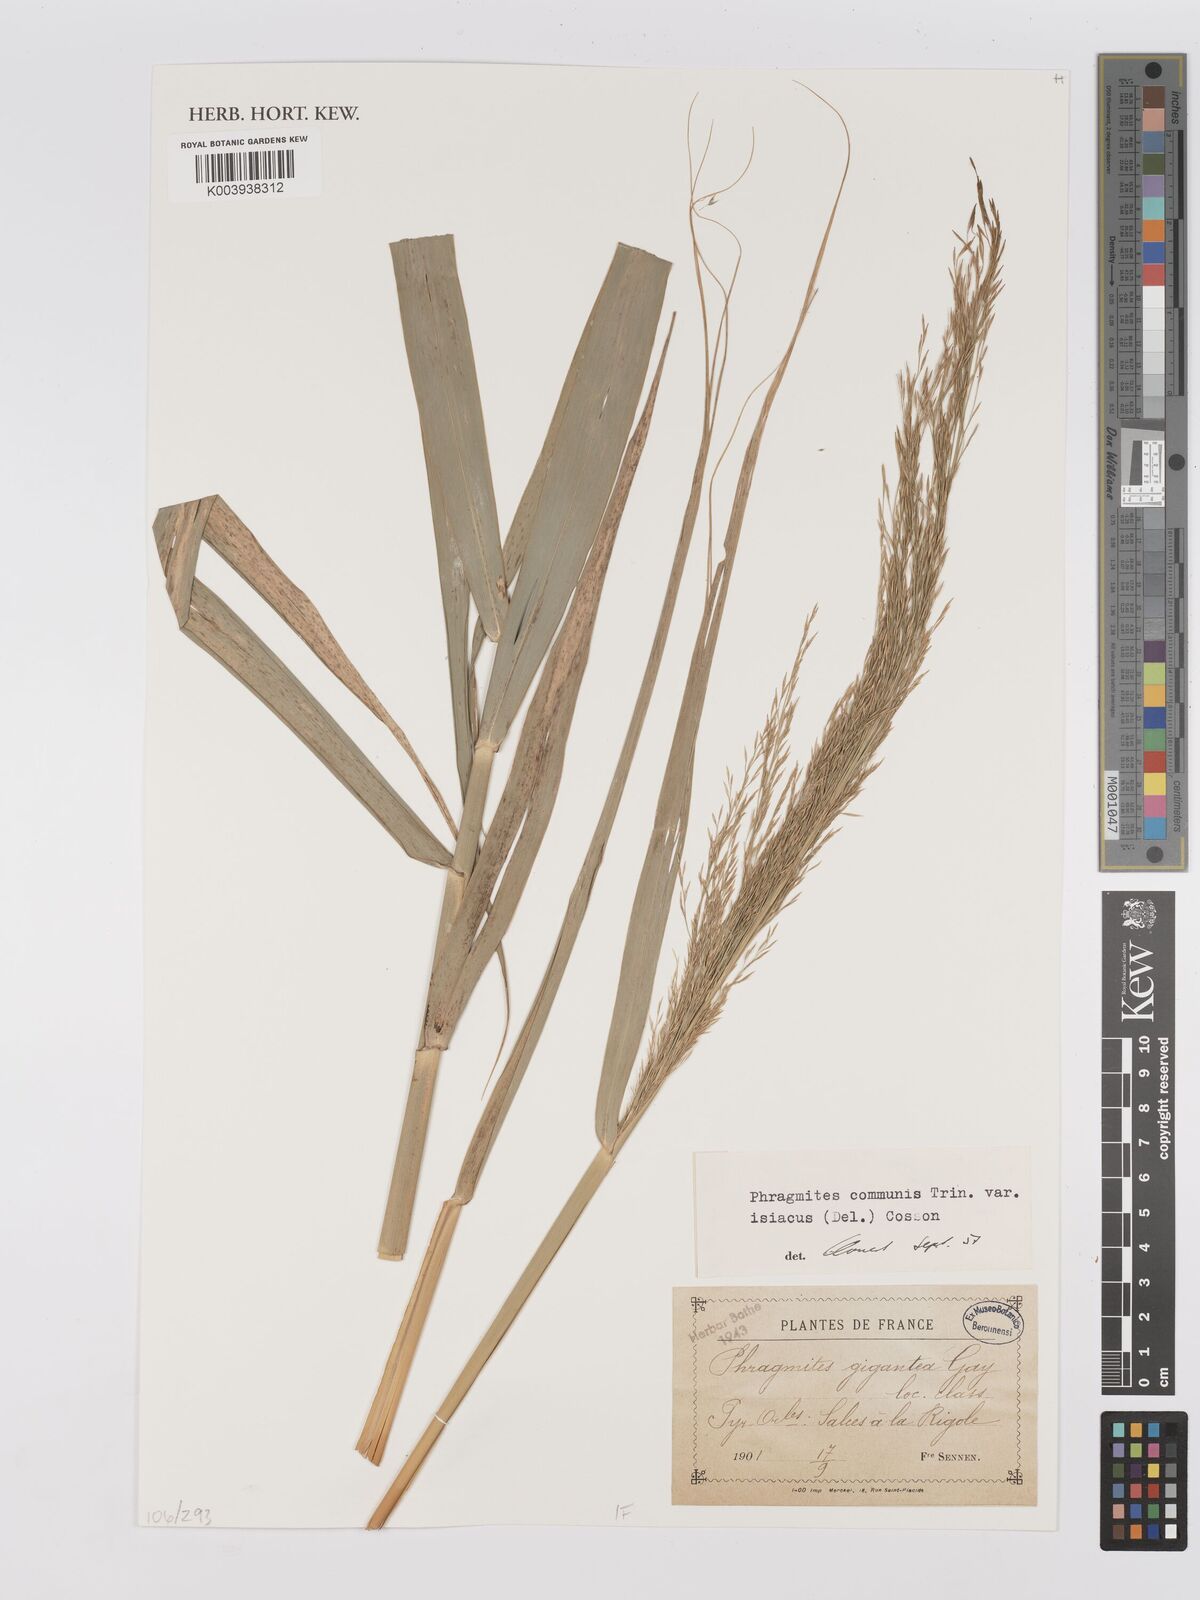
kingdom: Plantae
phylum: Tracheophyta
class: Liliopsida
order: Poales
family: Poaceae
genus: Phragmites
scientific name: Phragmites australis
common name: Common reed
